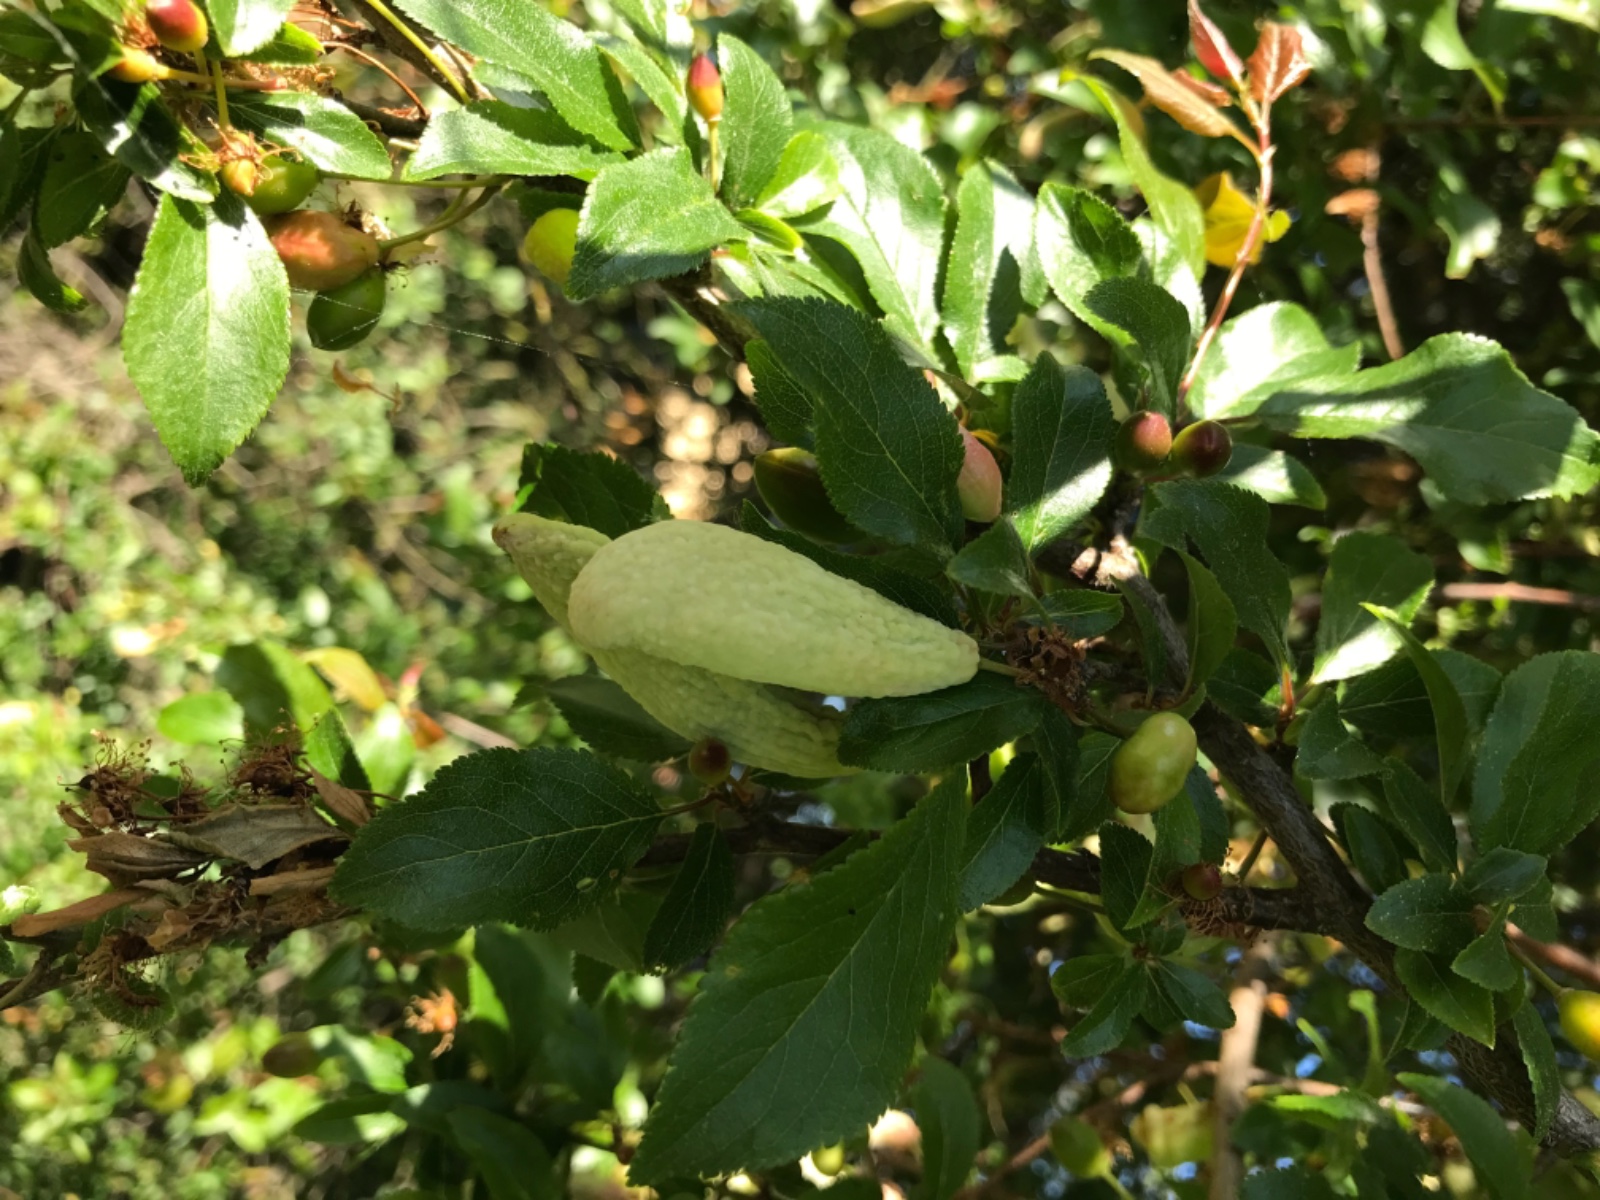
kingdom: Fungi
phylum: Ascomycota
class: Taphrinomycetes
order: Taphrinales
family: Taphrinaceae
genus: Taphrina
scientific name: Taphrina pruni
